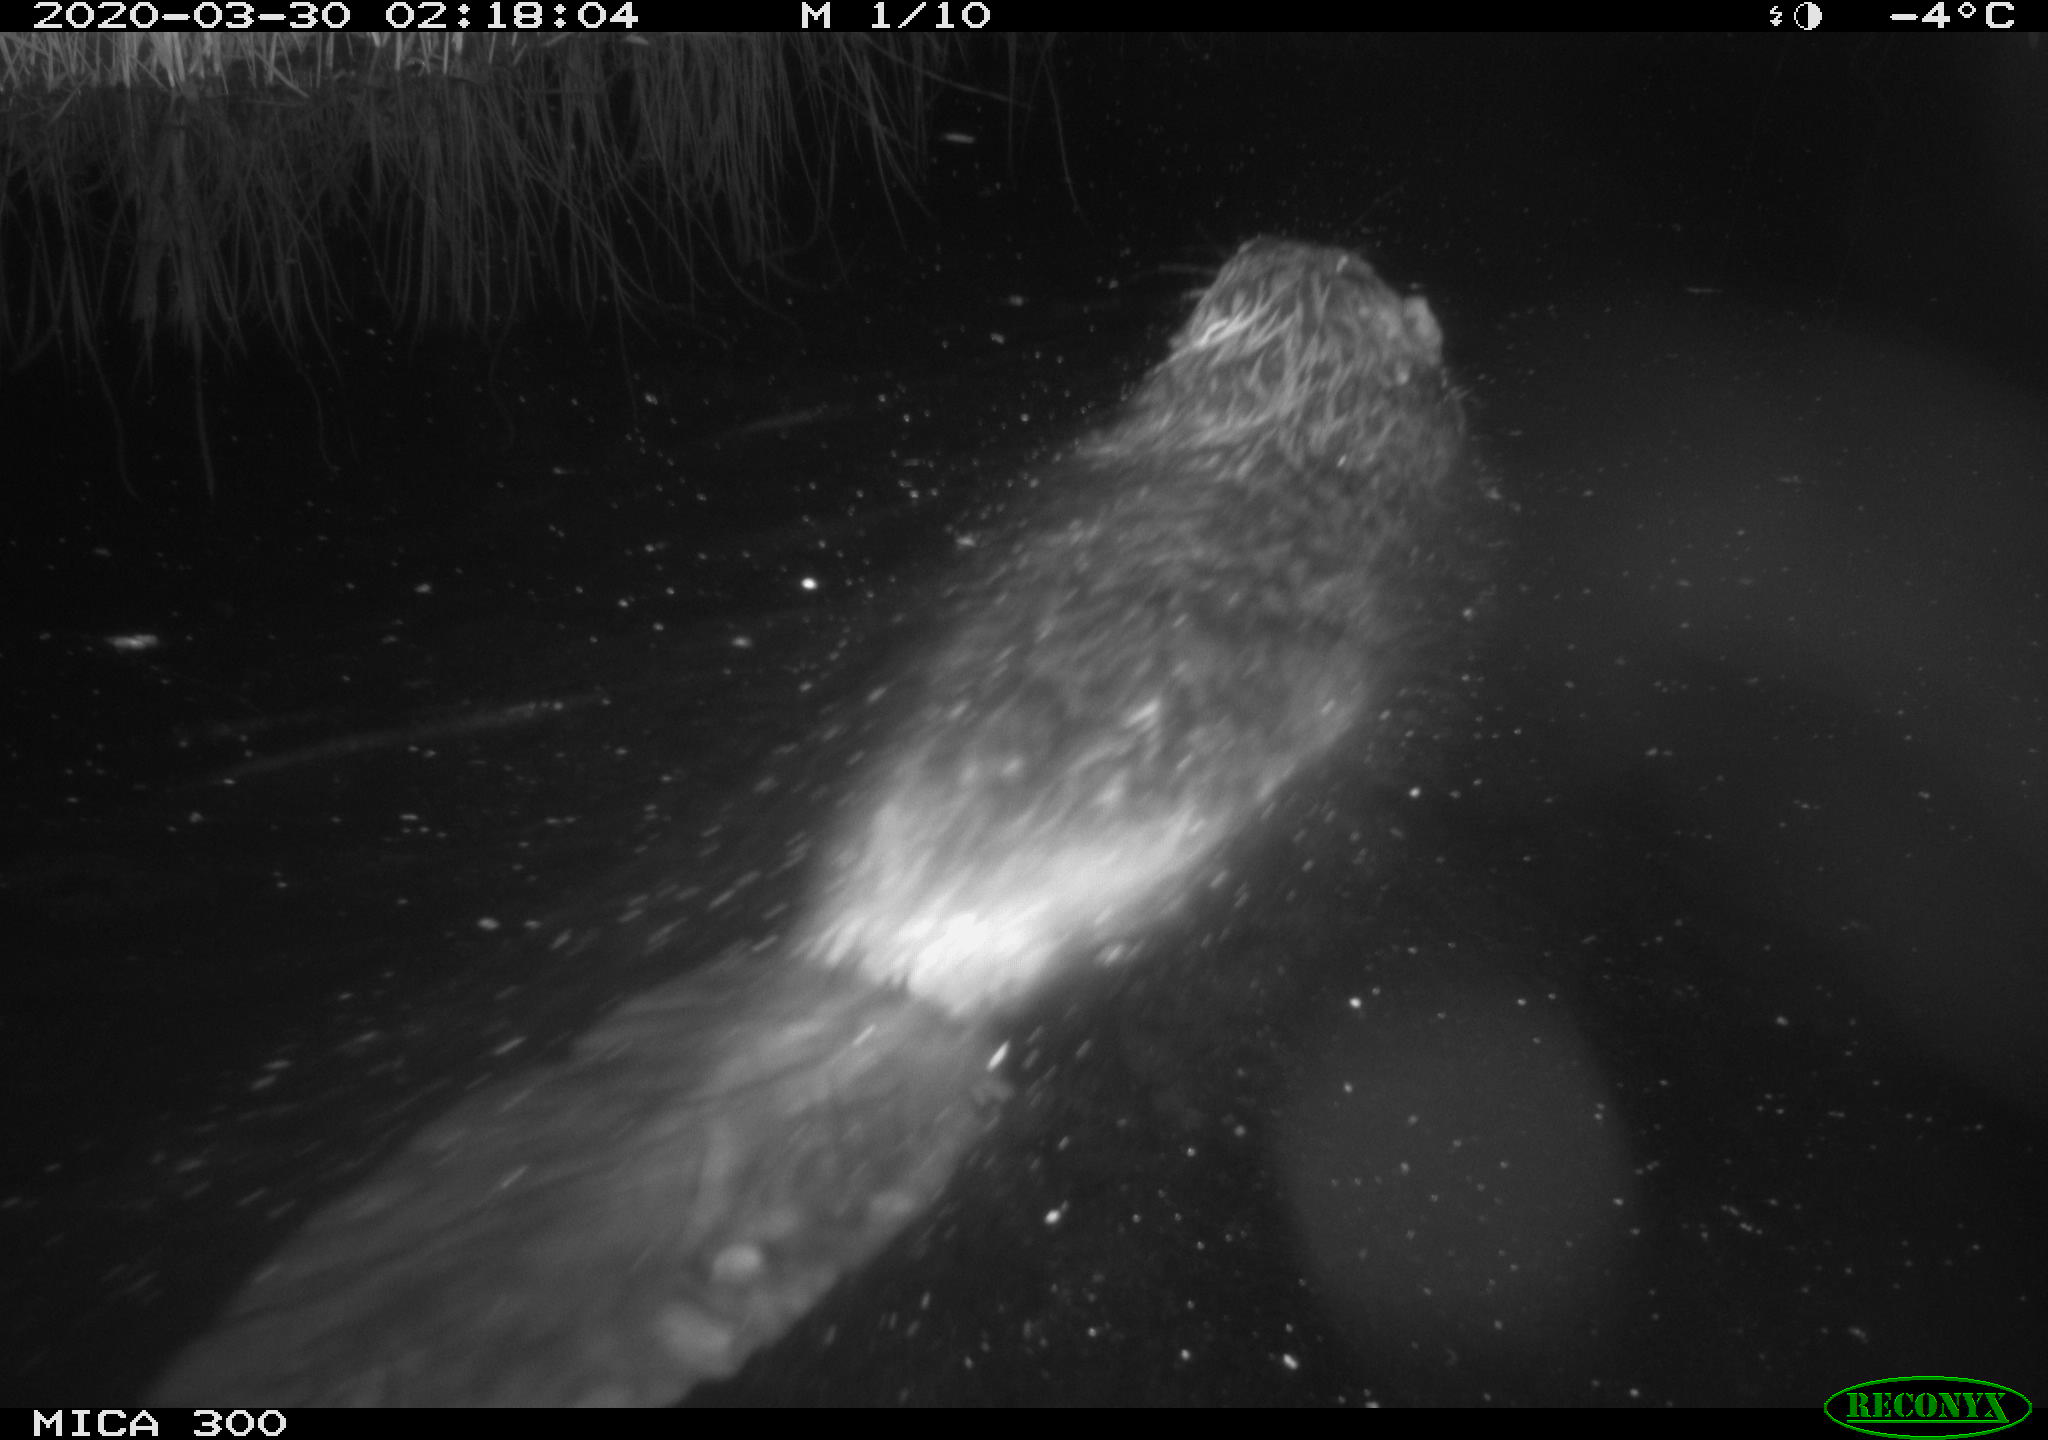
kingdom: Animalia
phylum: Chordata
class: Mammalia
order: Rodentia
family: Castoridae
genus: Castor
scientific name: Castor fiber
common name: Eurasian beaver
